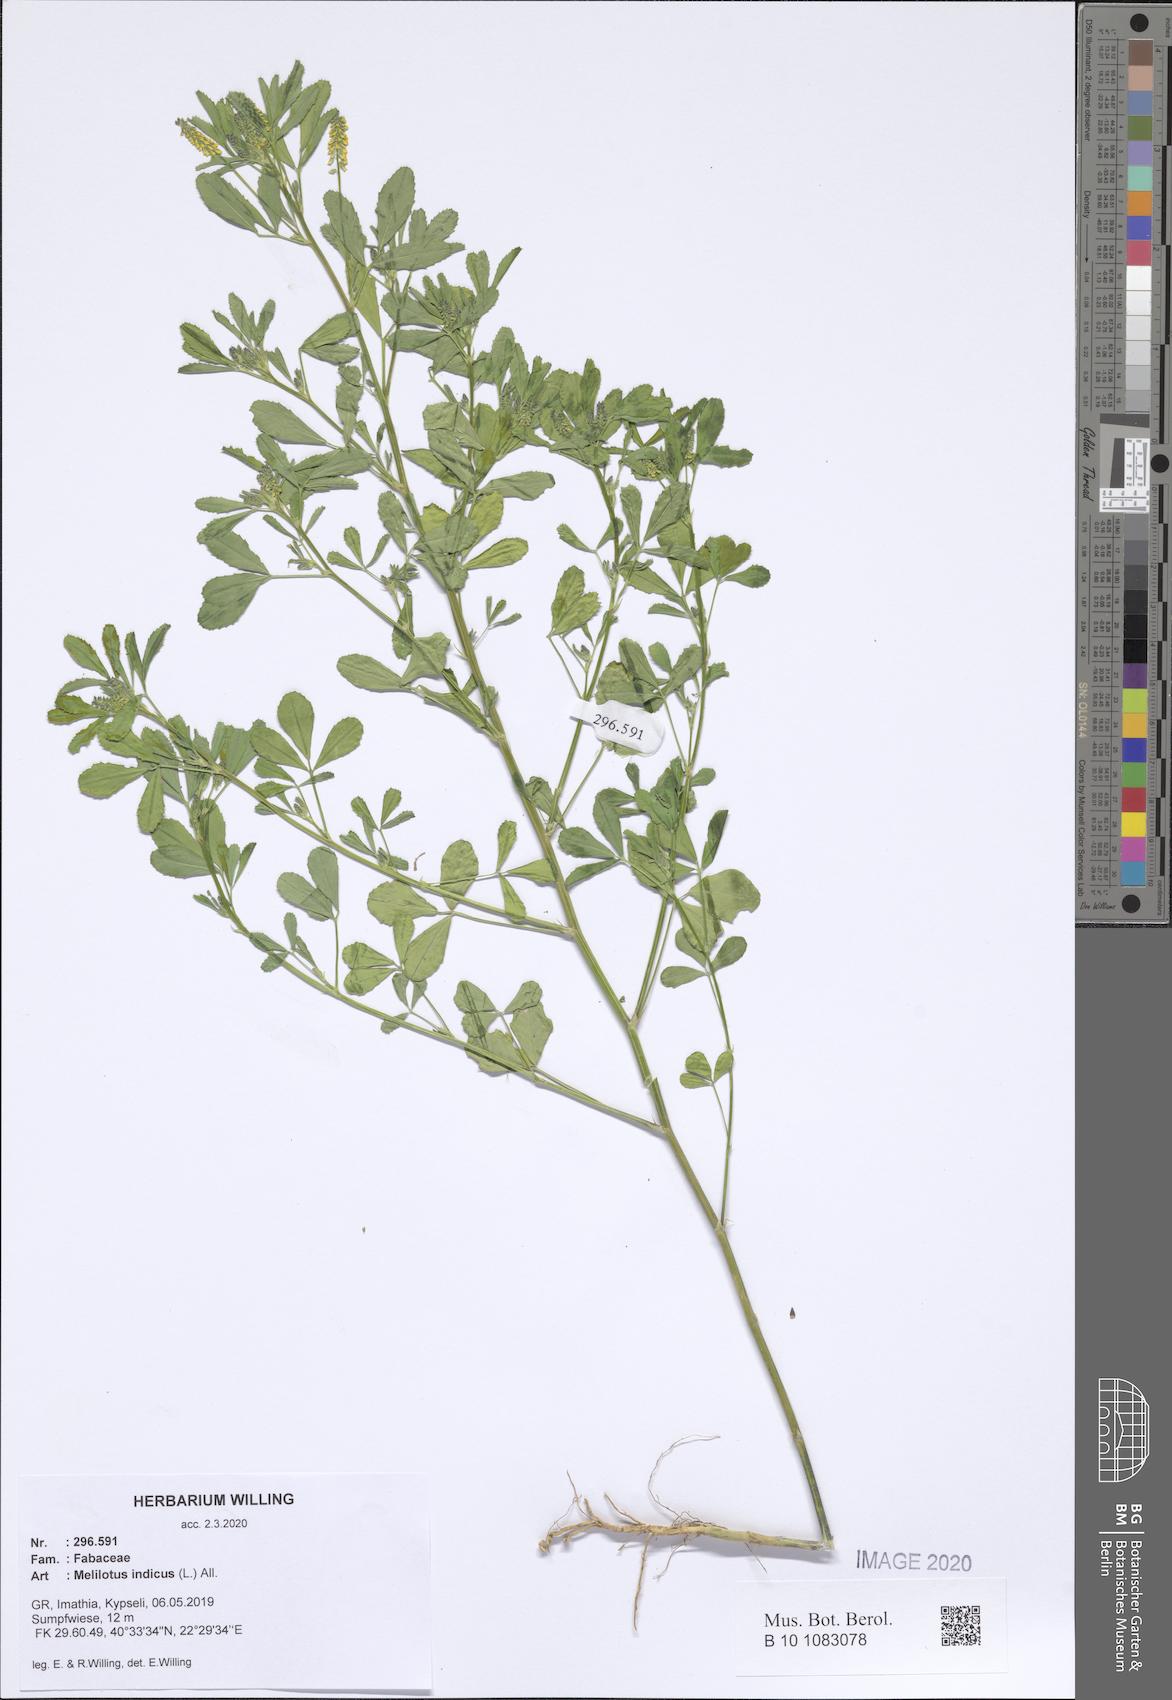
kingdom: Plantae
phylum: Tracheophyta
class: Magnoliopsida
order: Fabales
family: Fabaceae
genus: Melilotus
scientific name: Melilotus indicus
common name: Small melilot
